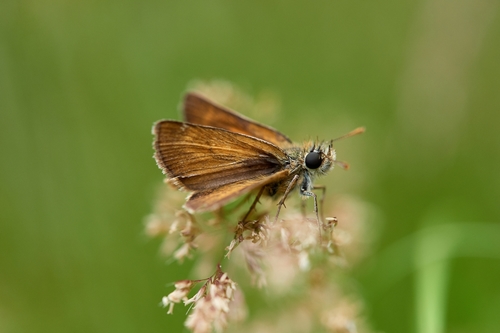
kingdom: Animalia
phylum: Arthropoda
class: Insecta
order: Lepidoptera
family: Hesperiidae
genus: Thymelicus
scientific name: Thymelicus acteon
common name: Lulworth skipper
